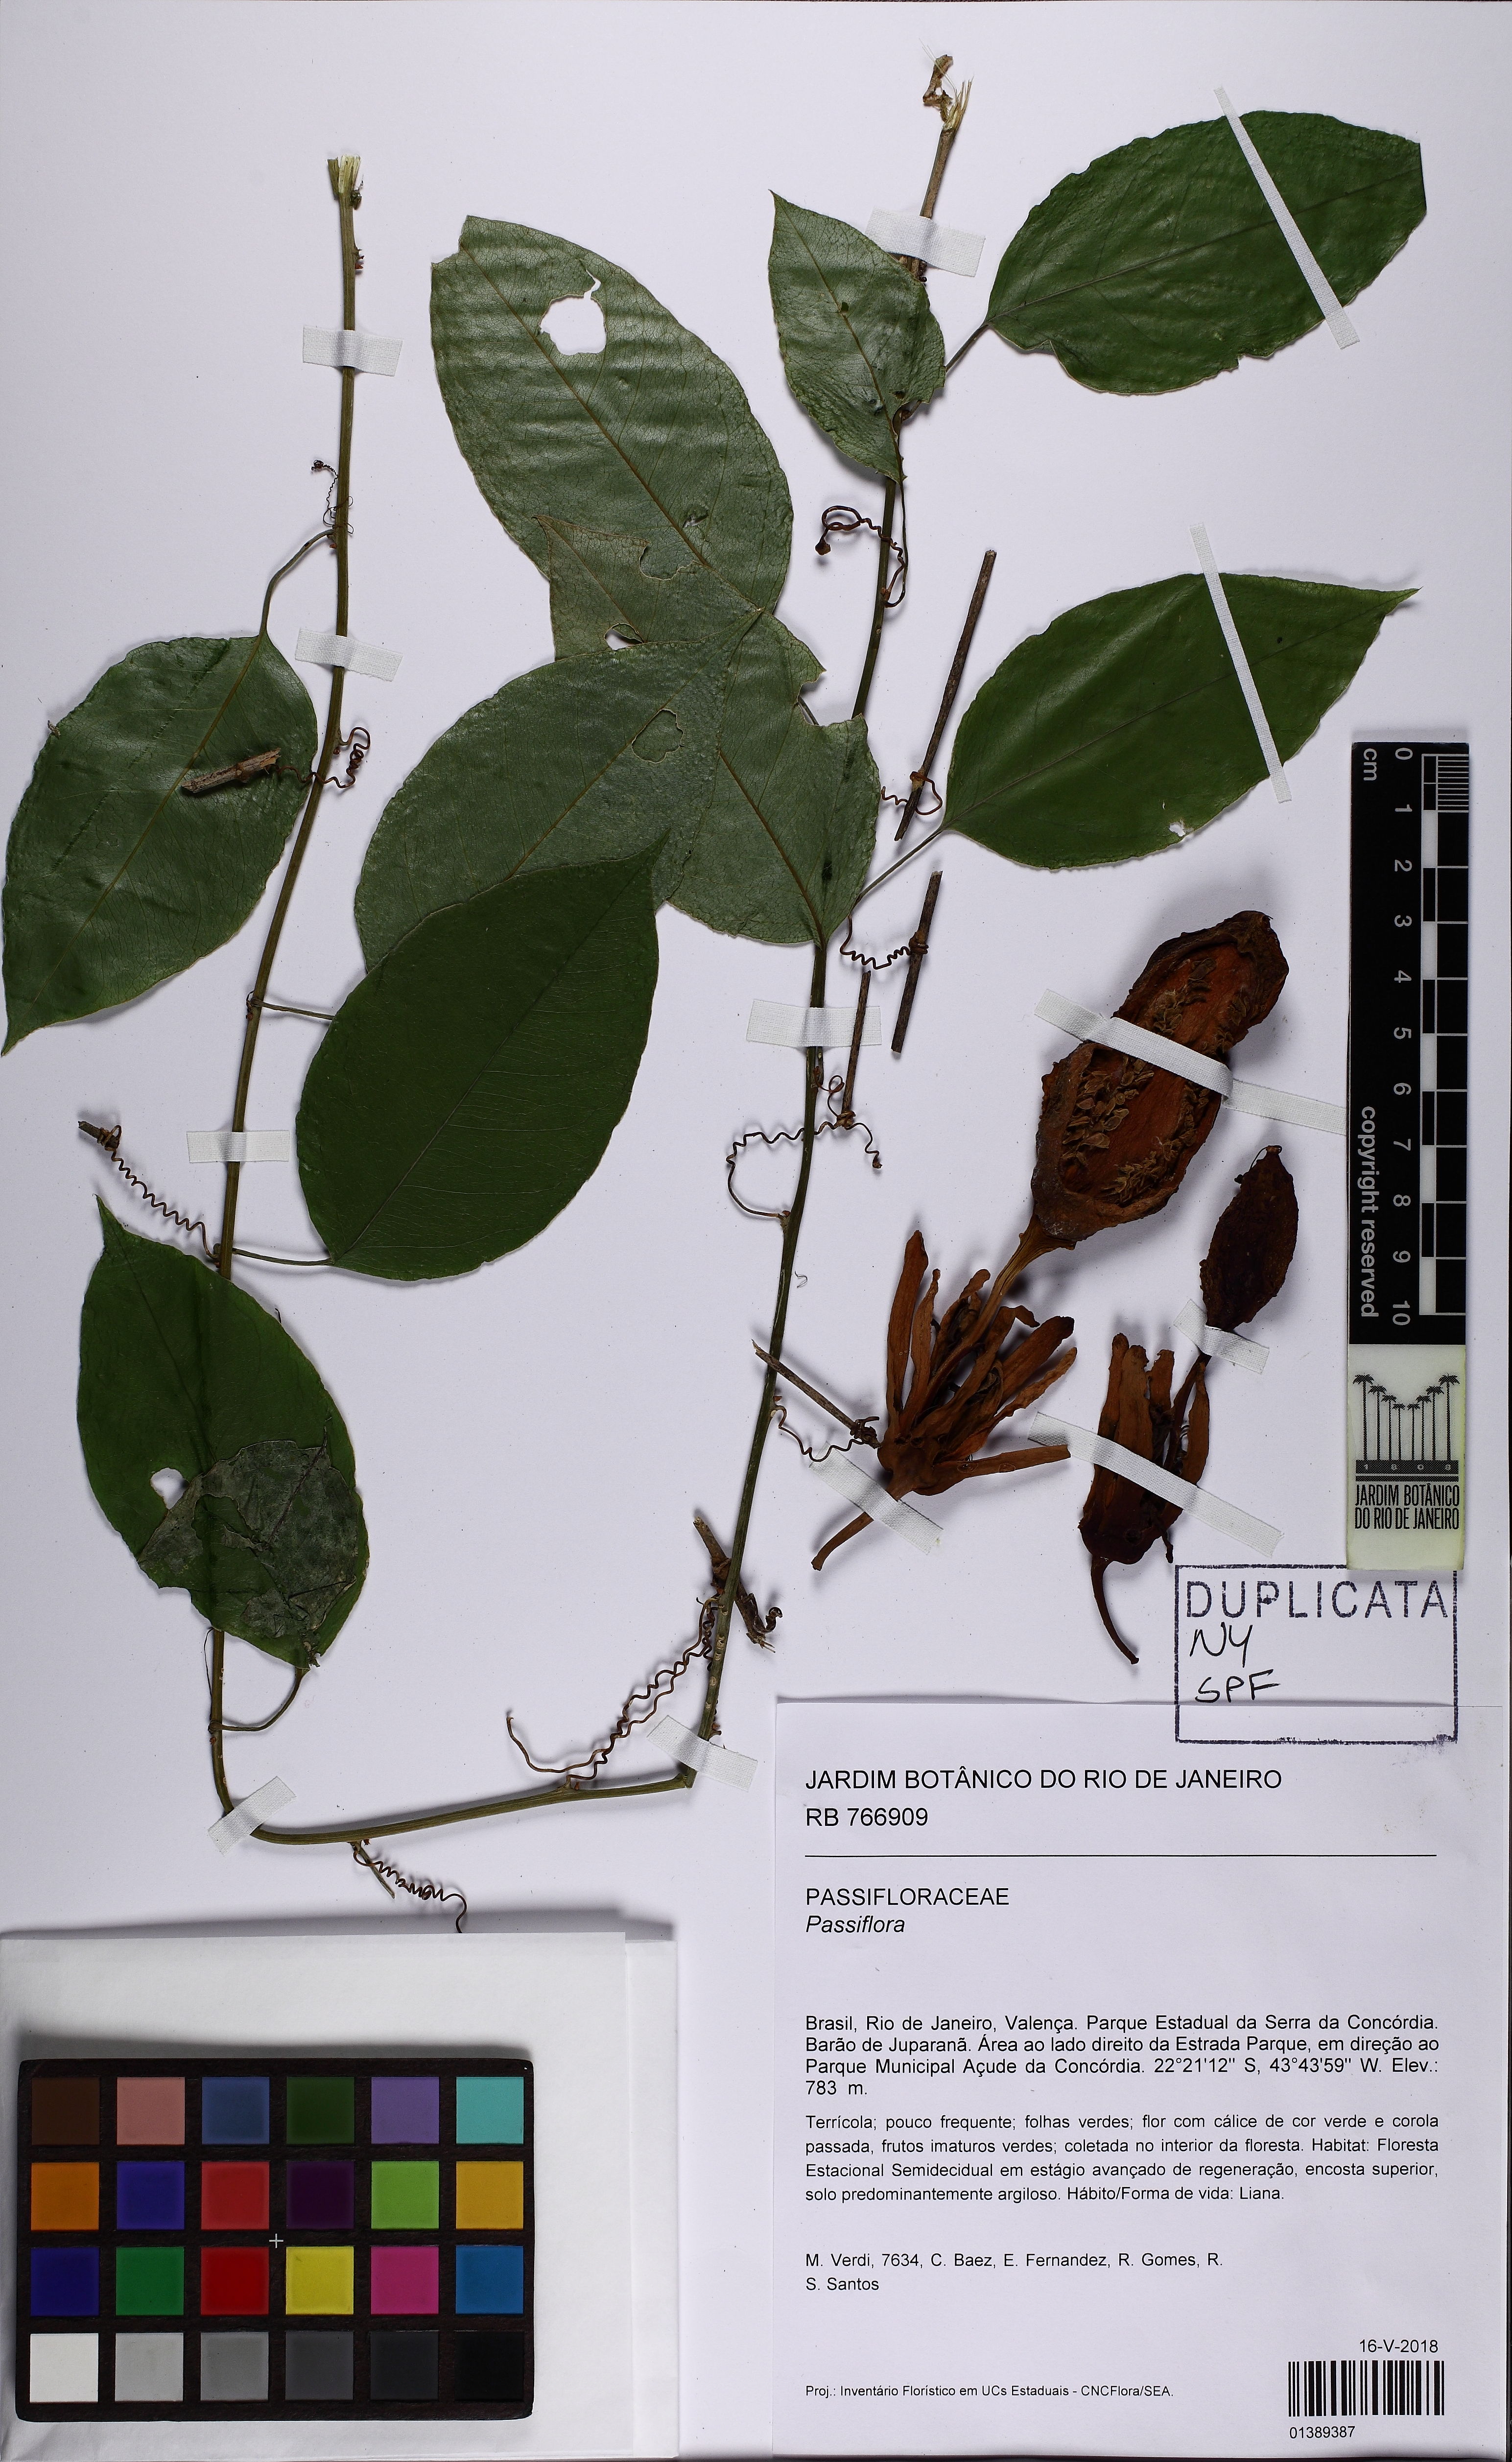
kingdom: Plantae
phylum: Tracheophyta
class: Magnoliopsida
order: Malpighiales
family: Passifloraceae
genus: Passiflora
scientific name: Passiflora
